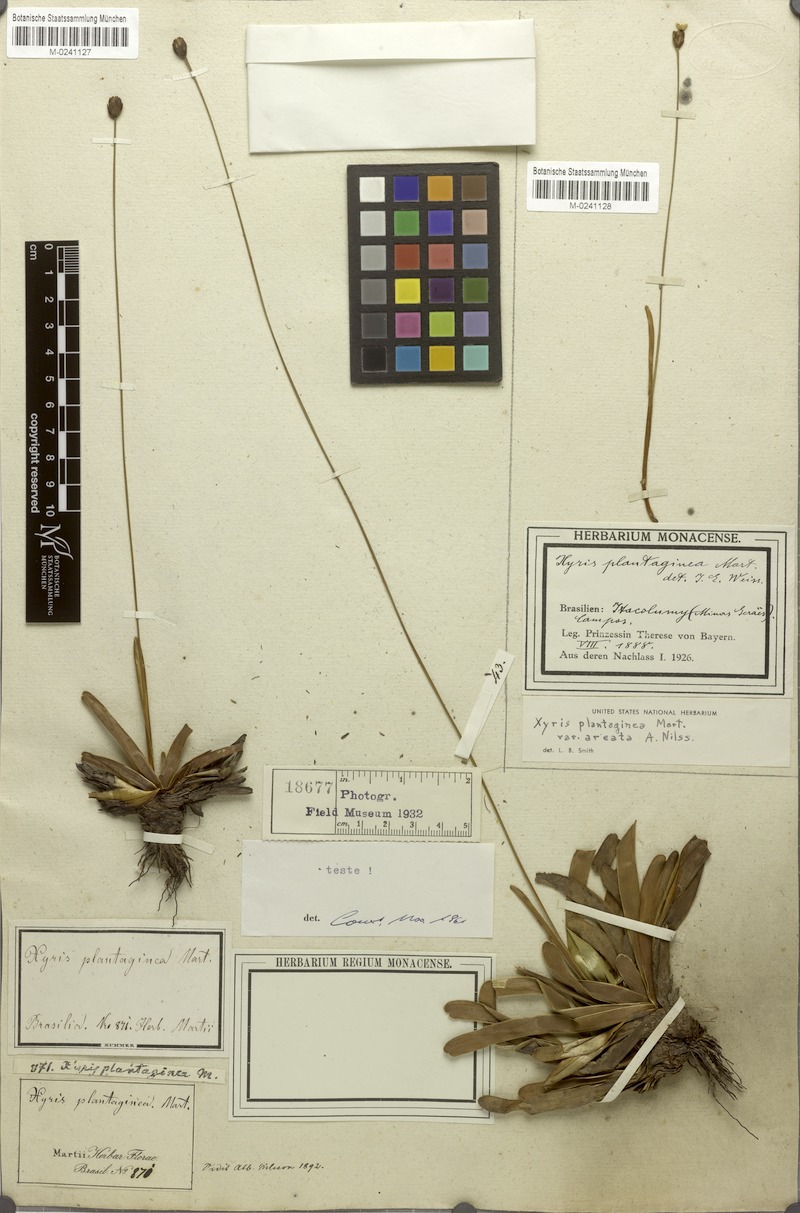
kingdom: Plantae
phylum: Tracheophyta
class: Liliopsida
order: Poales
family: Xyridaceae
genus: Xyris
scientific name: Xyris plantaginea
